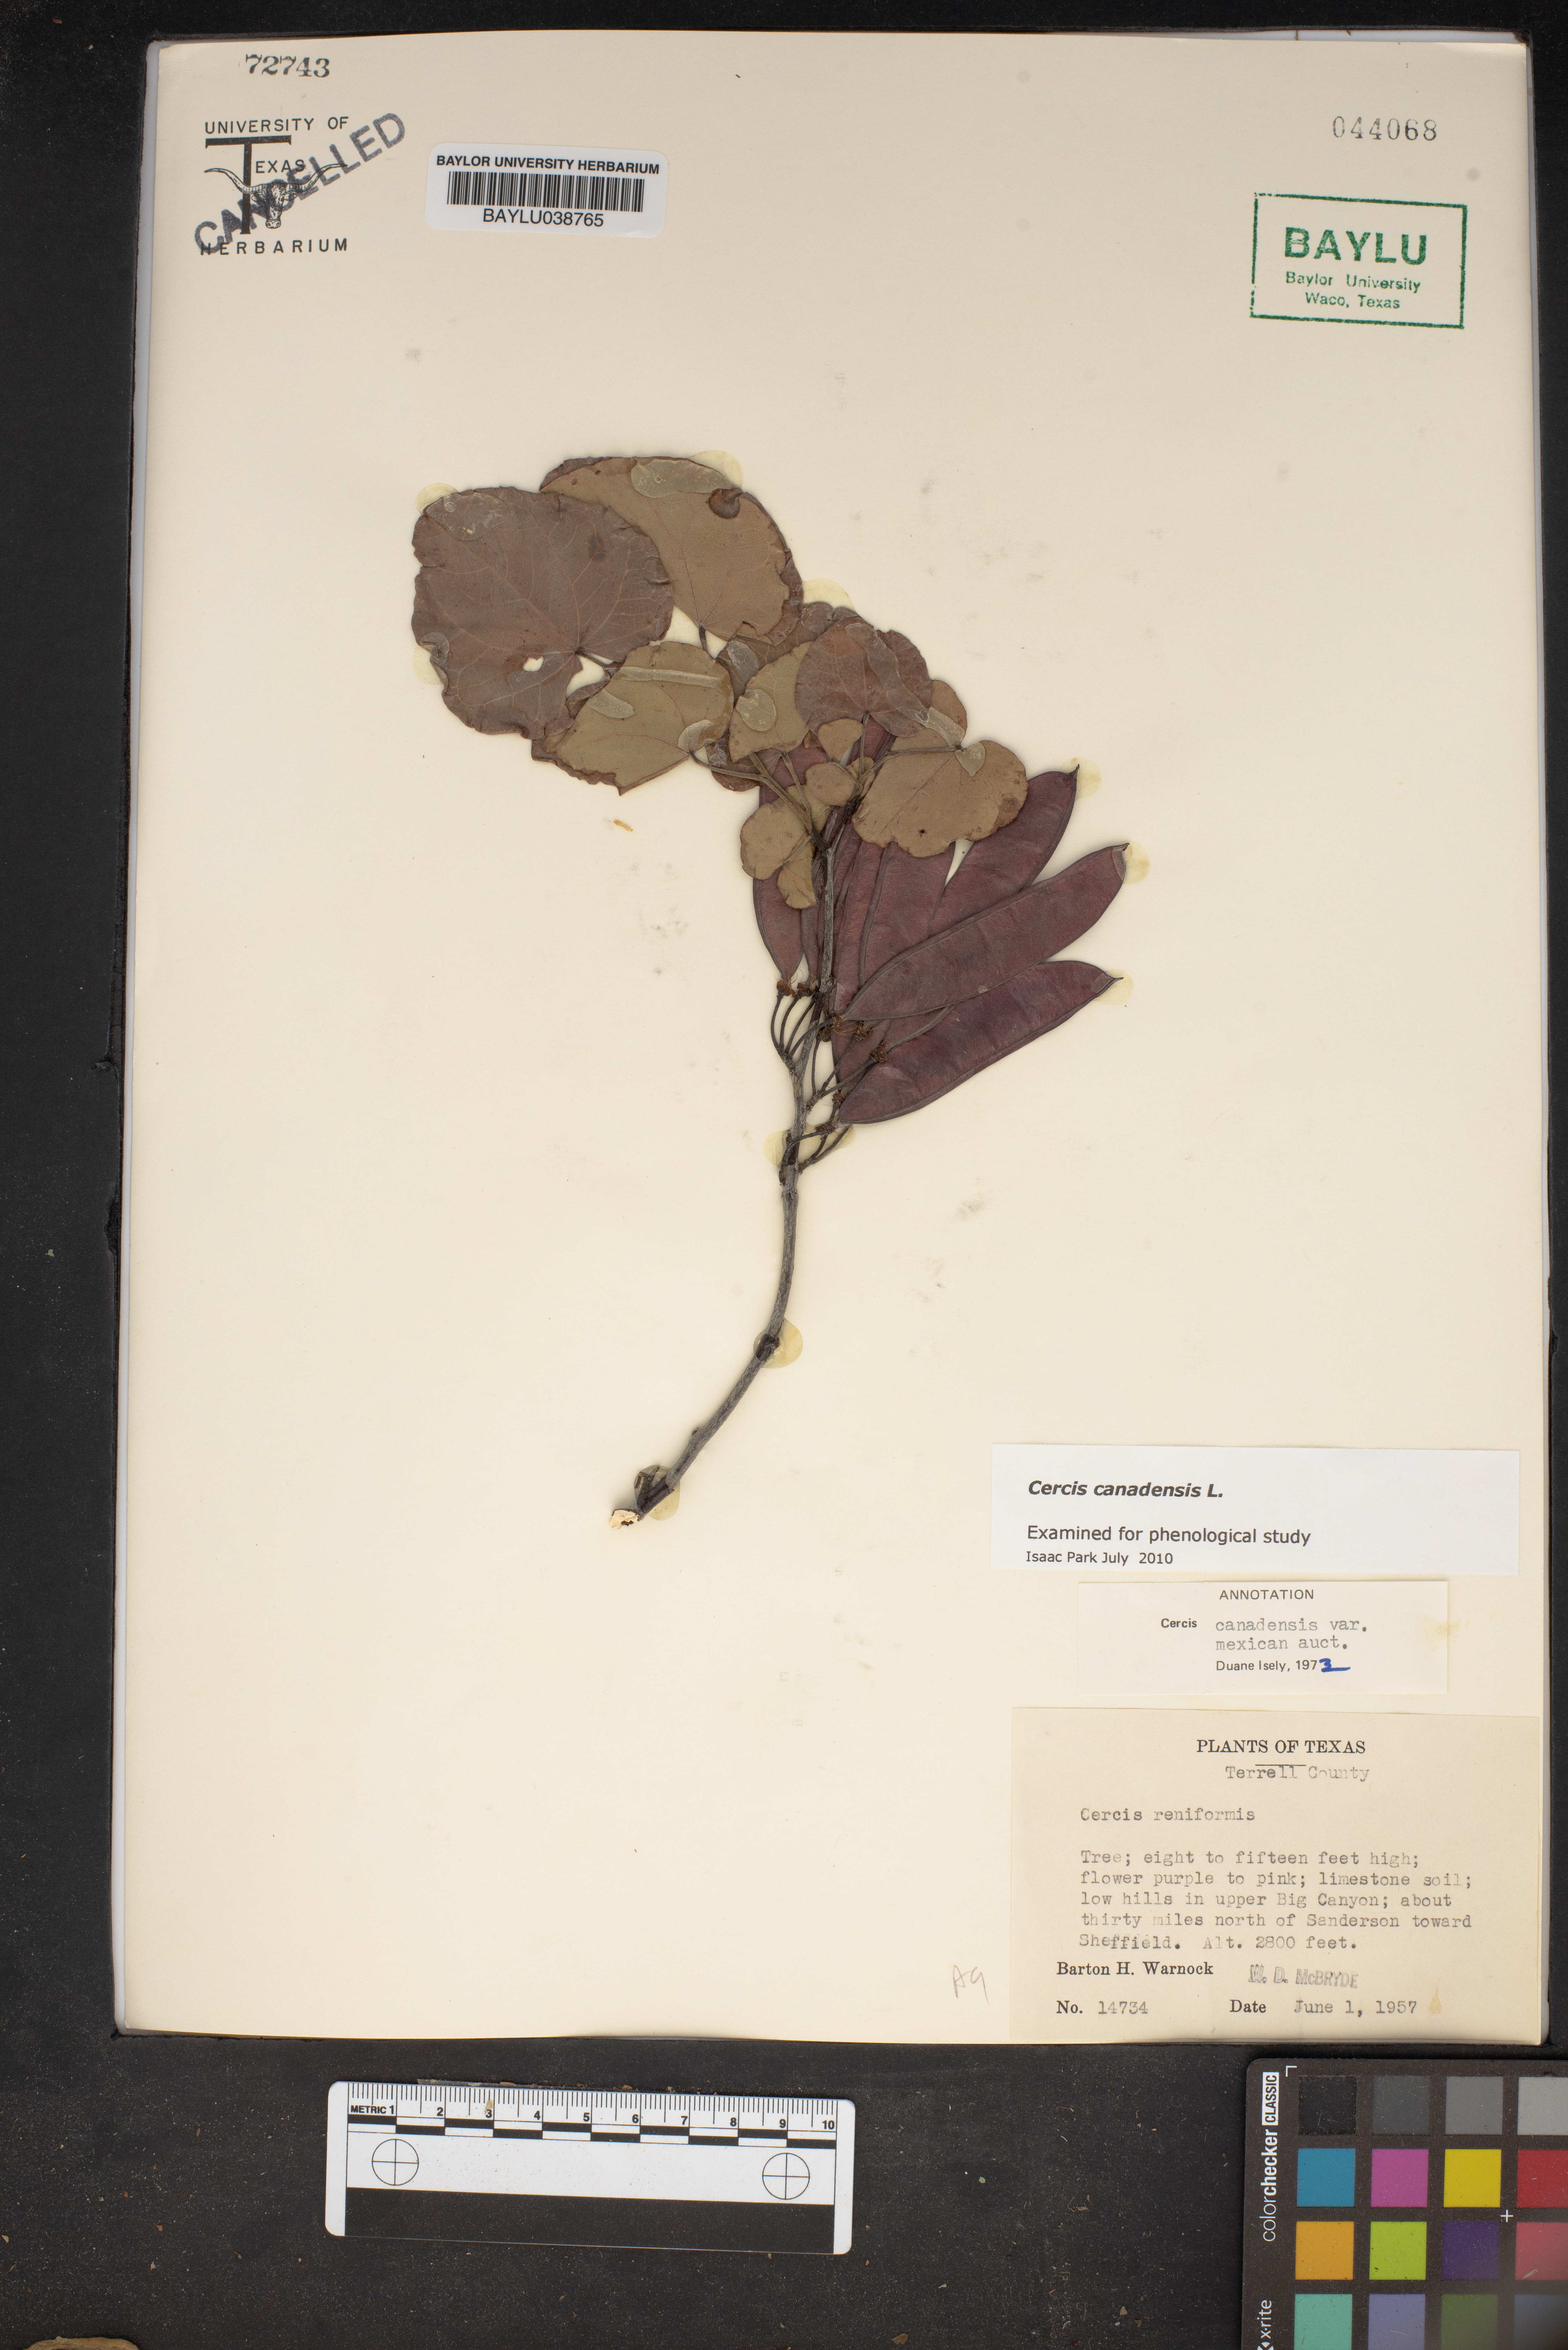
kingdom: Plantae
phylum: Tracheophyta
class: Magnoliopsida
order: Fabales
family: Fabaceae
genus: Cercis
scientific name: Cercis canadensis
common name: Eastern redbud
